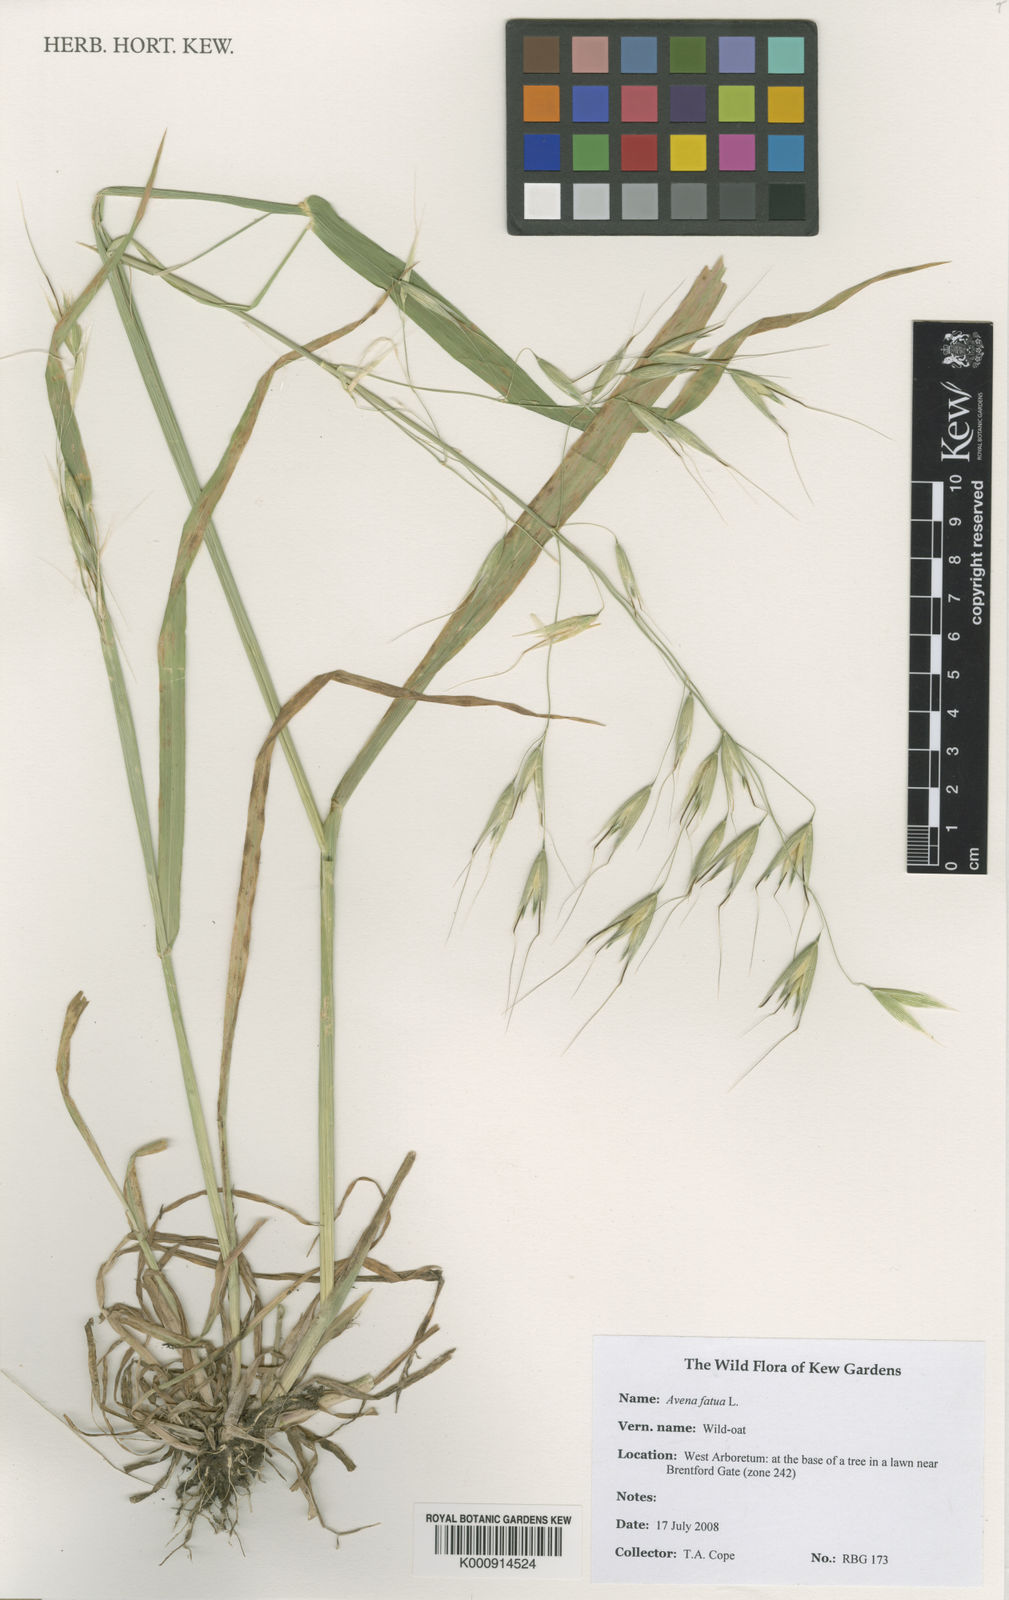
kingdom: Plantae
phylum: Tracheophyta
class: Liliopsida
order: Poales
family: Poaceae
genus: Avena
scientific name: Avena fatua
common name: Wild oat
